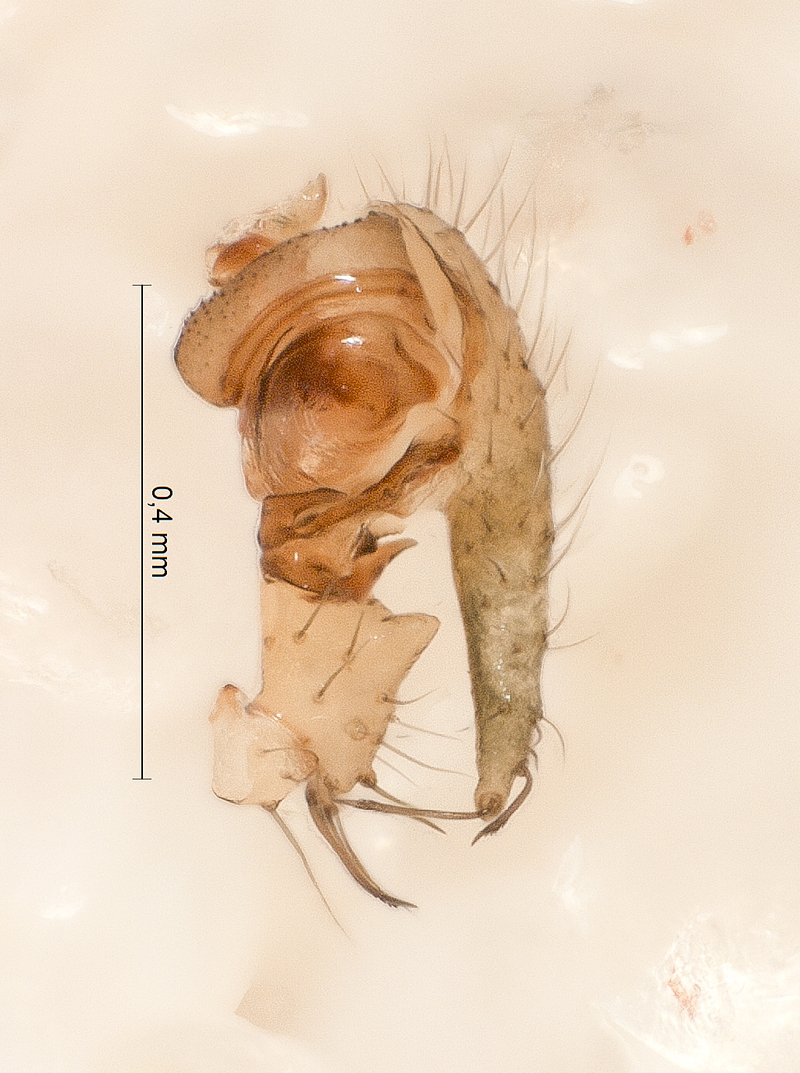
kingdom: Animalia
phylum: Arthropoda
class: Arachnida
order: Araneae
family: Linyphiidae
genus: Sintula
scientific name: Sintula corniger
